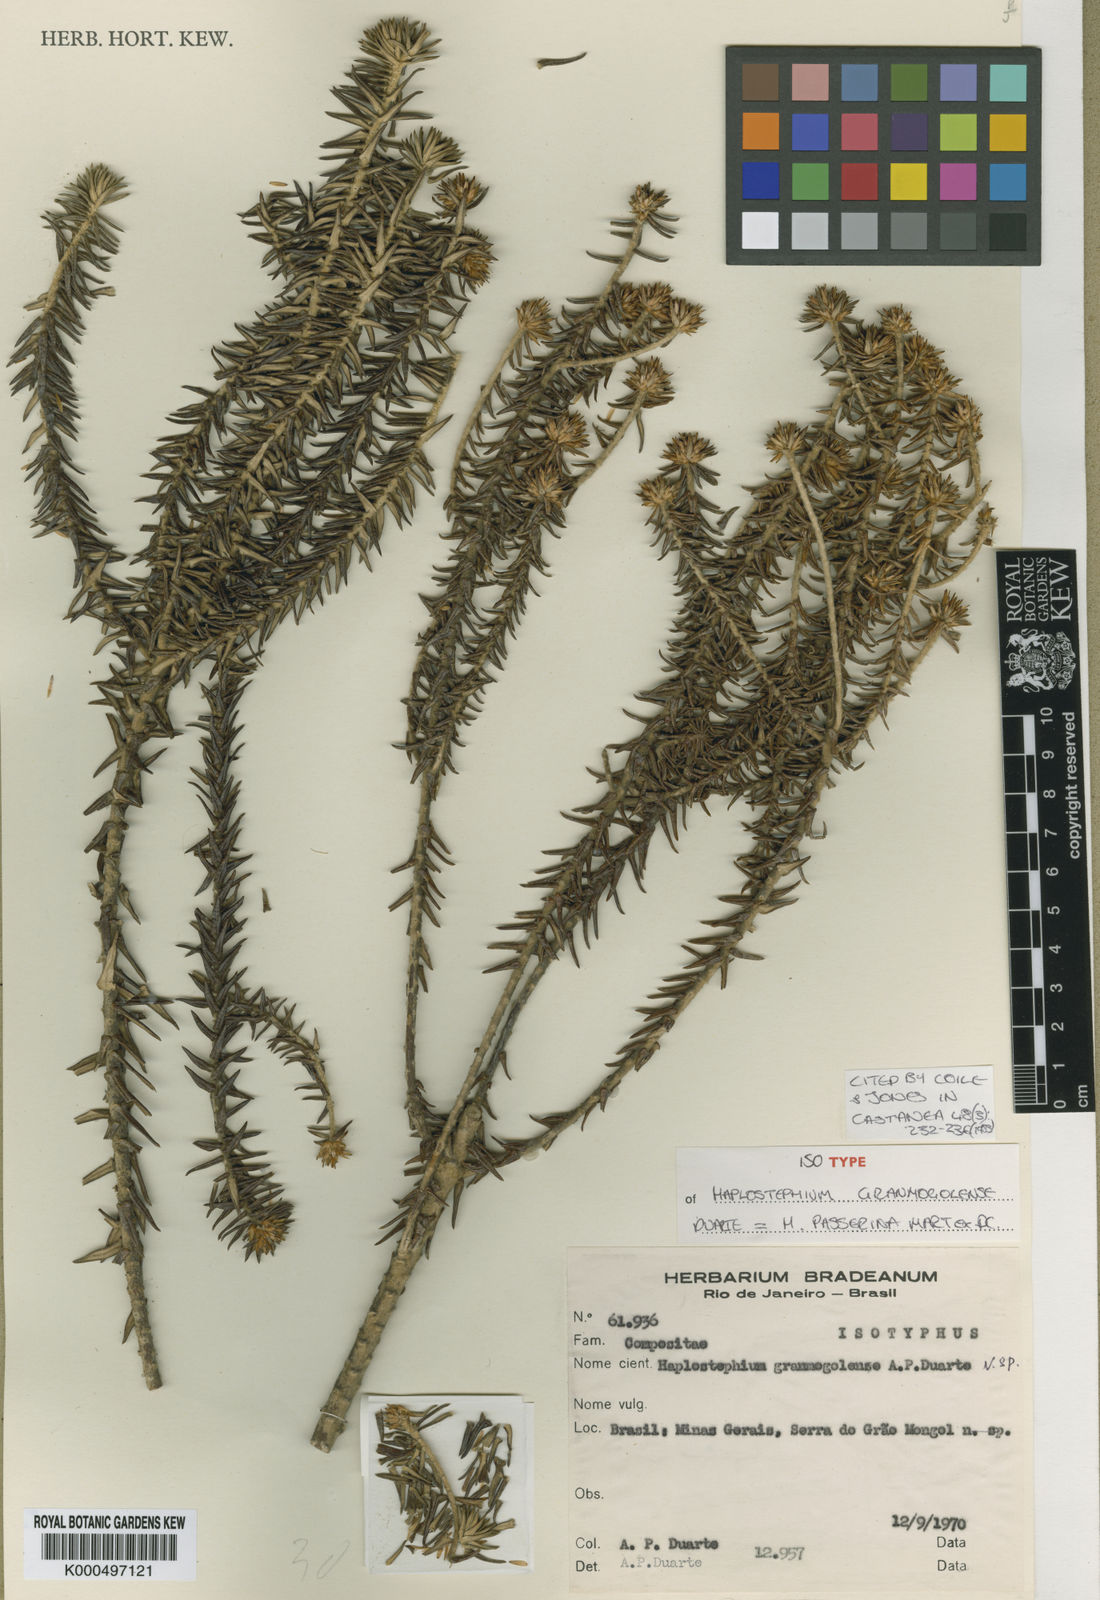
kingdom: Plantae
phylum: Tracheophyta
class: Magnoliopsida
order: Asterales
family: Asteraceae
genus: Lychnophora
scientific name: Lychnophora granmogolensis
